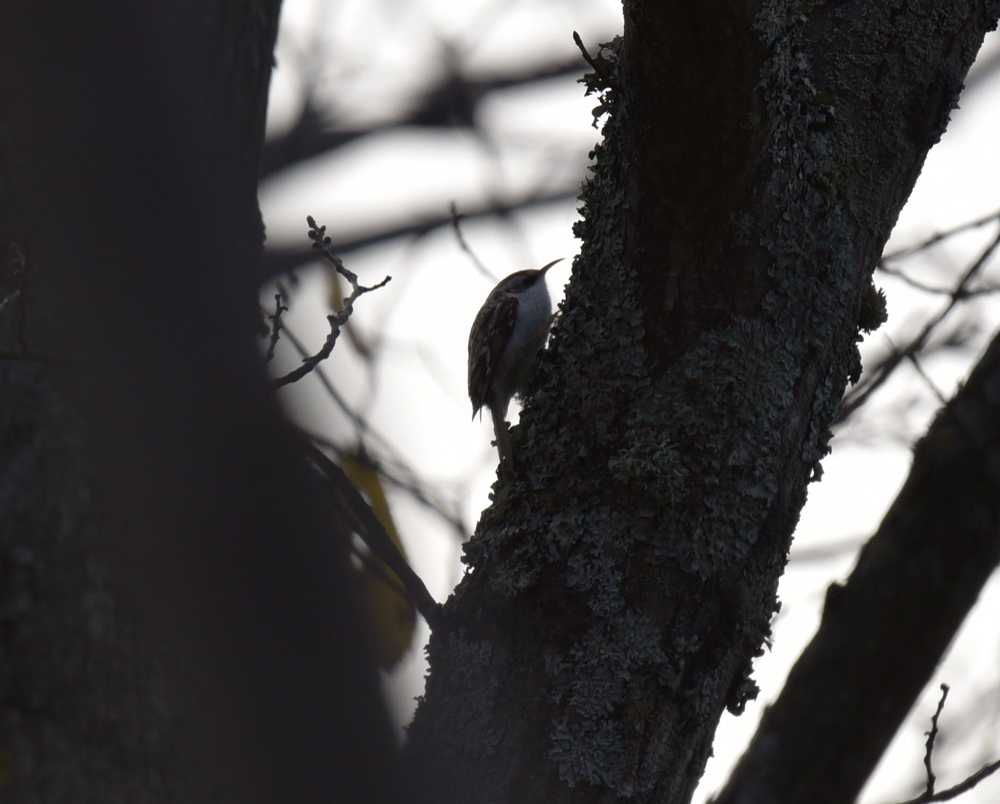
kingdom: Animalia
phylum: Chordata
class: Aves
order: Passeriformes
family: Certhiidae
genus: Certhia
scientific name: Certhia familiaris
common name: Eurasian treecreeper
